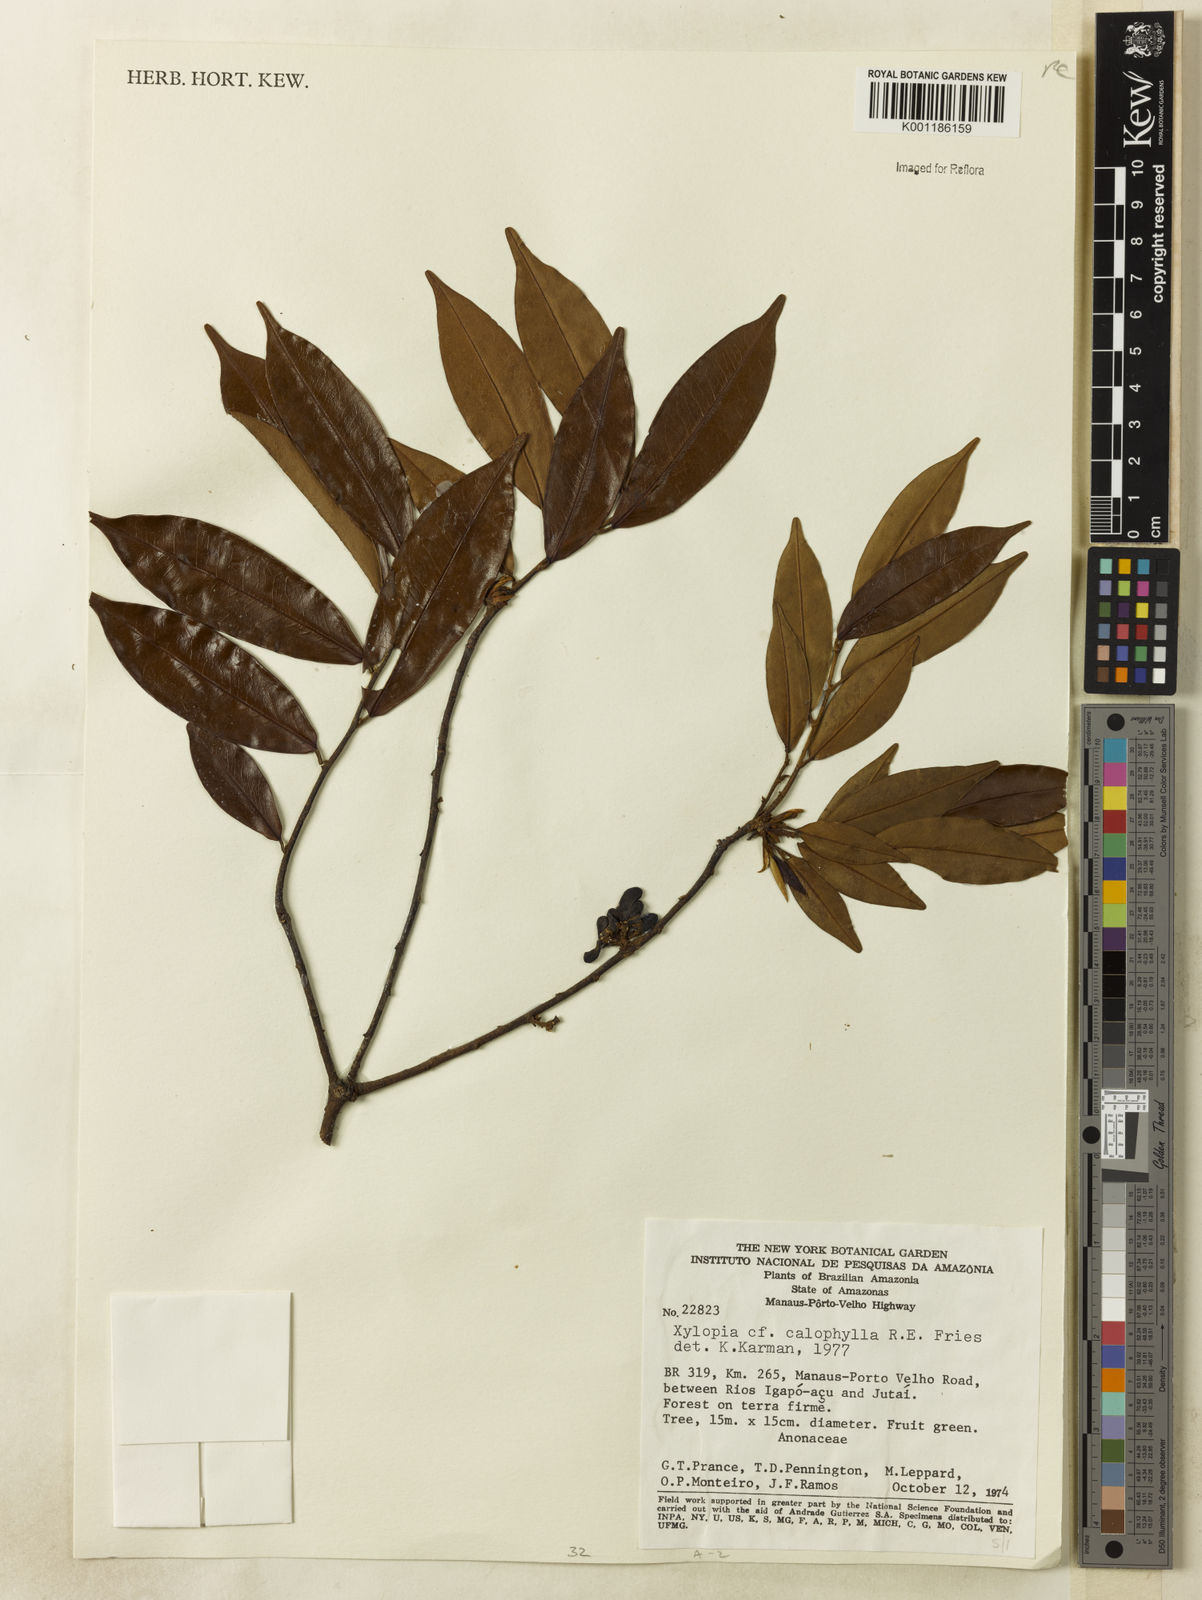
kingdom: Plantae
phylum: Tracheophyta
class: Magnoliopsida
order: Magnoliales
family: Annonaceae
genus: Xylopia
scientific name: Xylopia calophylla
